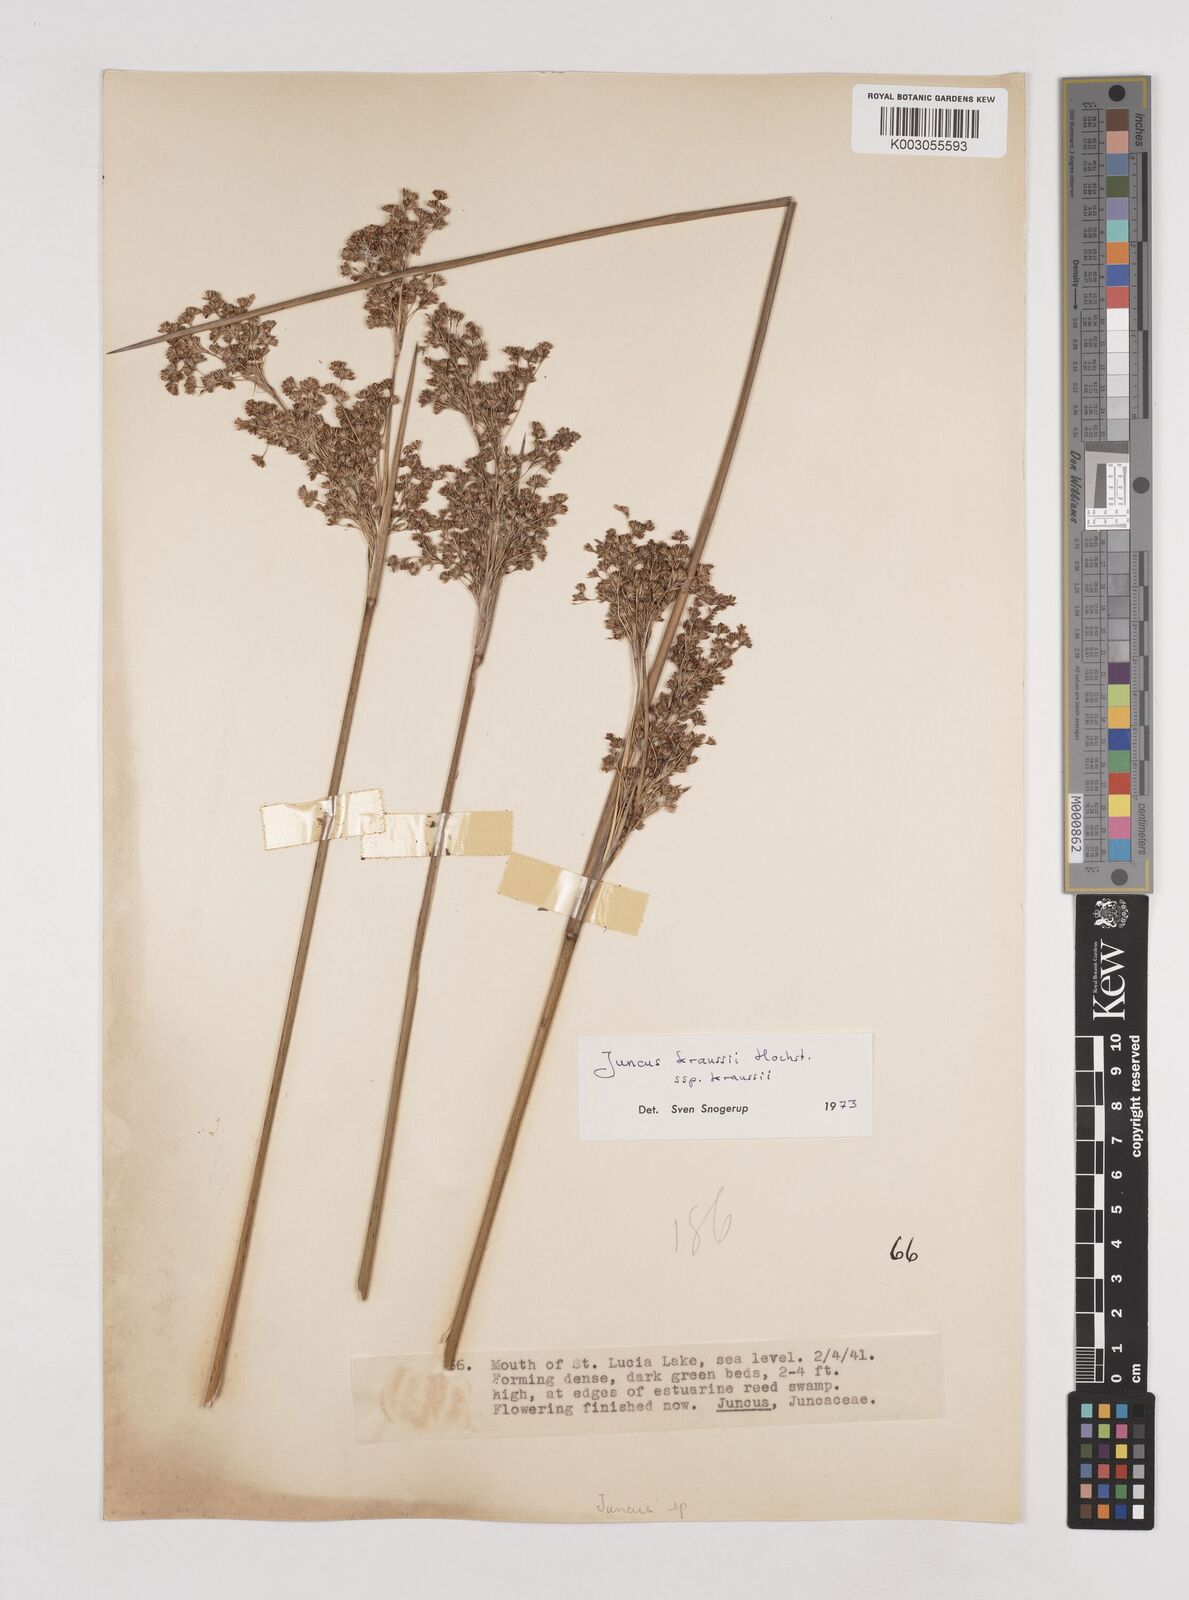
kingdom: Plantae
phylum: Tracheophyta
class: Liliopsida
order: Poales
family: Juncaceae
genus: Juncus
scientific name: Juncus kraussii
